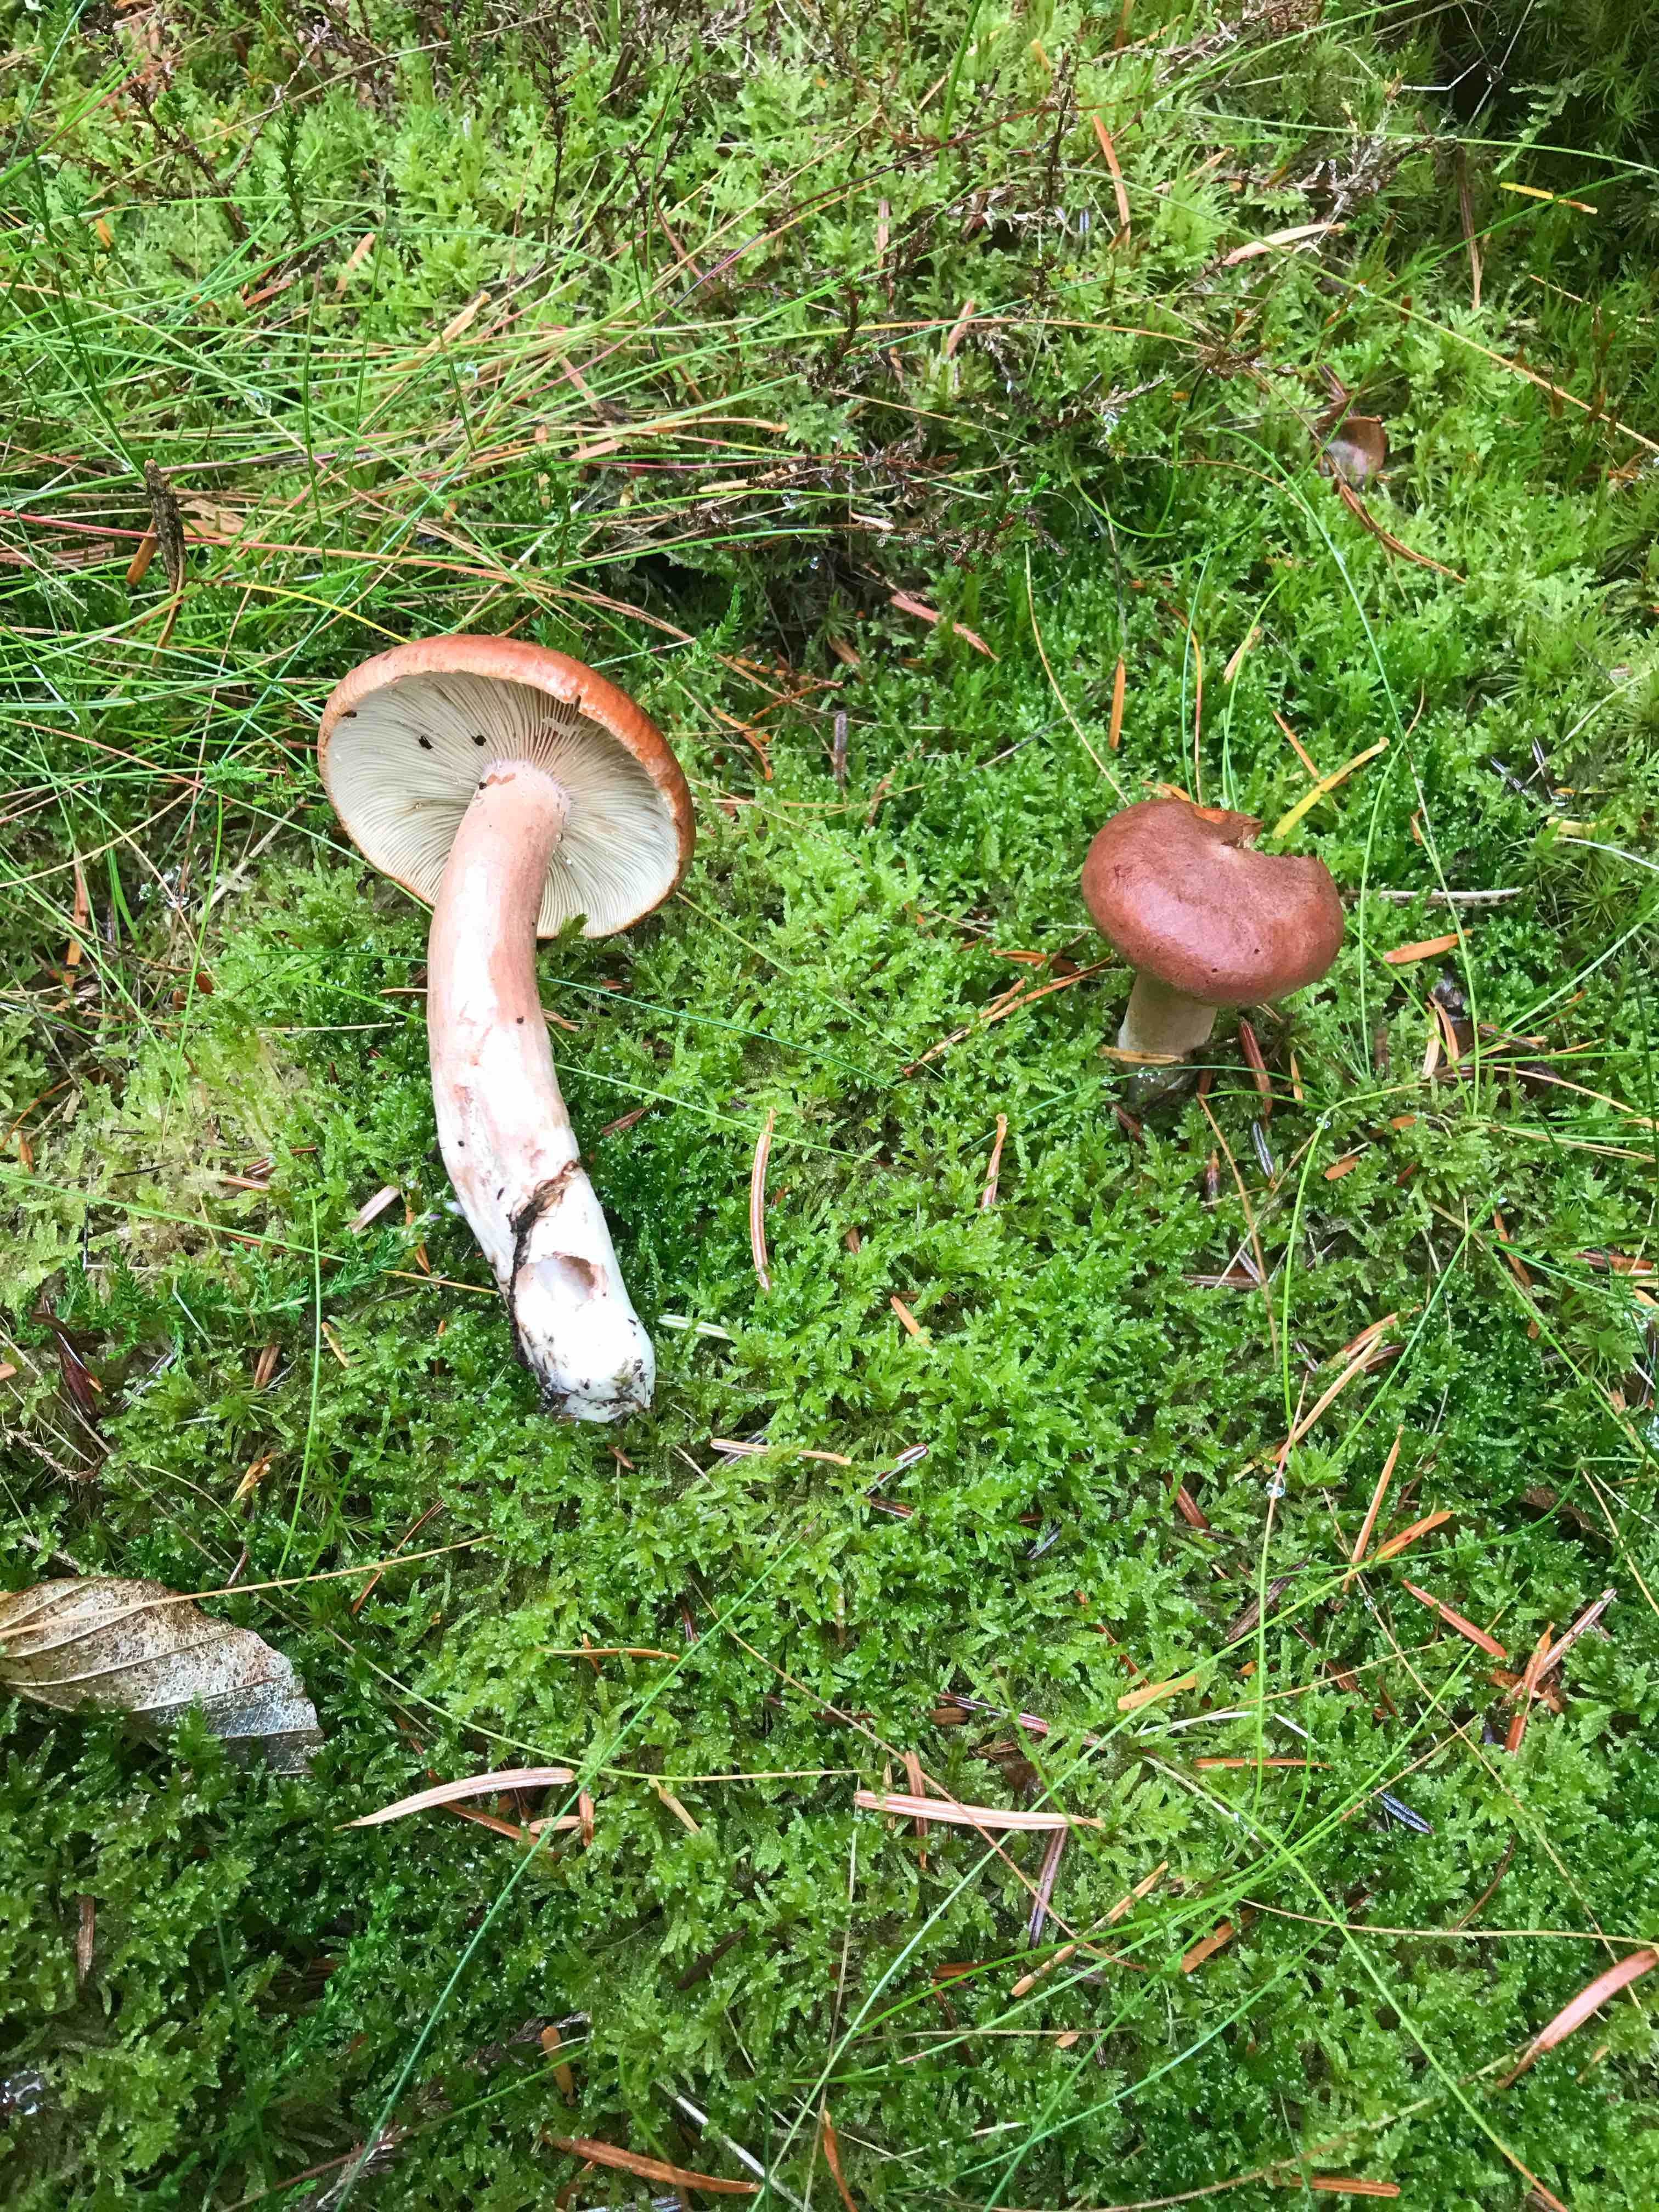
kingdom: Fungi
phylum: Basidiomycota
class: Agaricomycetes
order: Russulales
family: Russulaceae
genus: Lactarius
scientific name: Lactarius rufus
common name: rødbrun mælkehat
